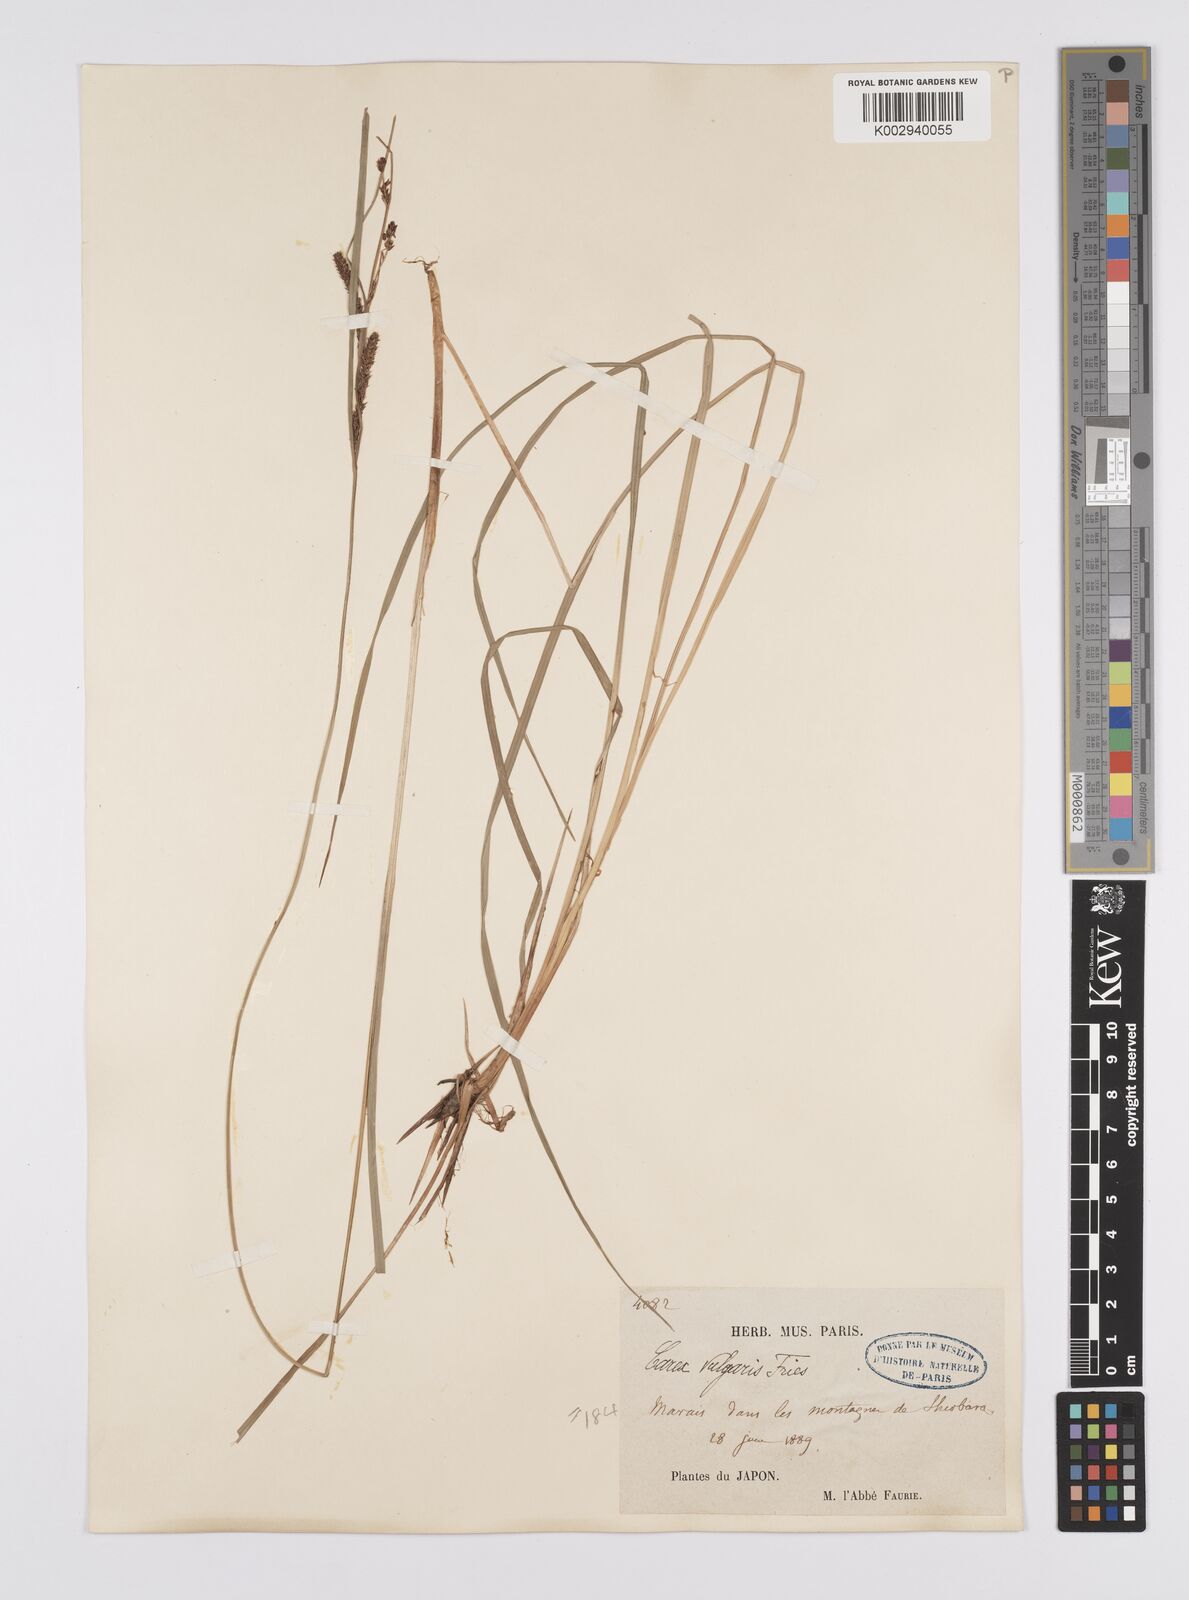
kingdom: Plantae
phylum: Tracheophyta
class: Liliopsida
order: Poales
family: Cyperaceae
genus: Carex
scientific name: Carex thunbergii
